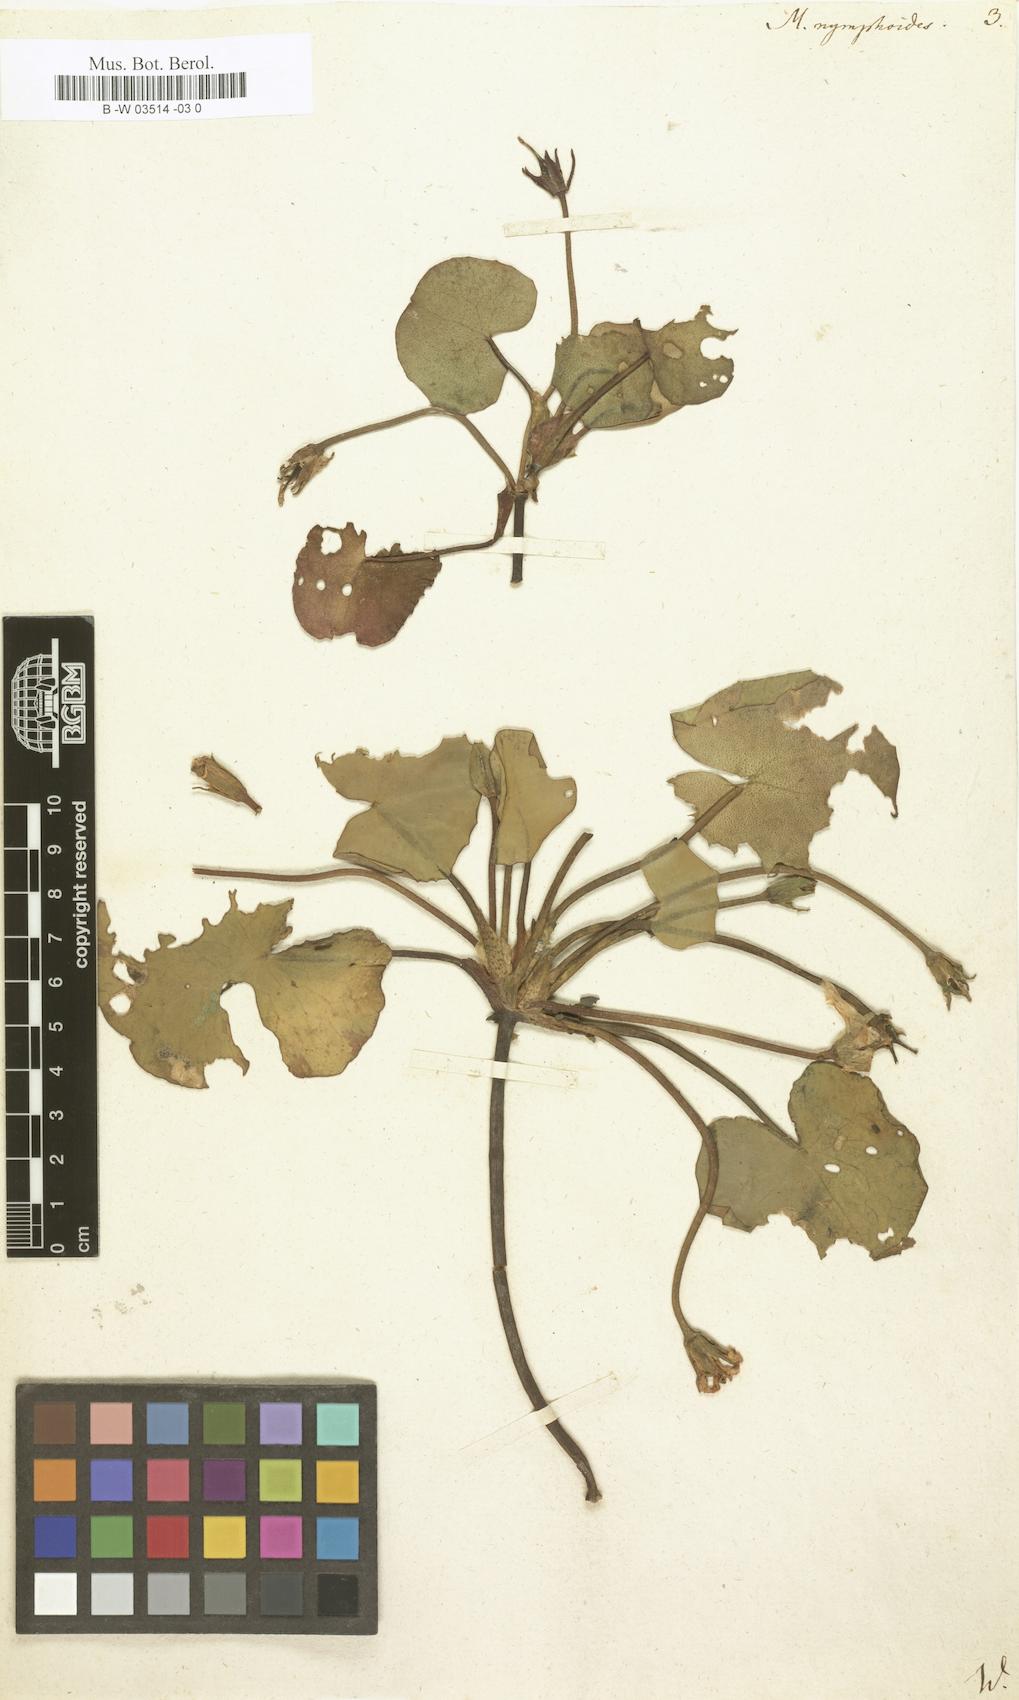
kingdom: Plantae
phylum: Tracheophyta
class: Magnoliopsida
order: Asterales
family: Menyanthaceae
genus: Nymphoides
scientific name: Nymphoides peltata
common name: Fringed water-lily
